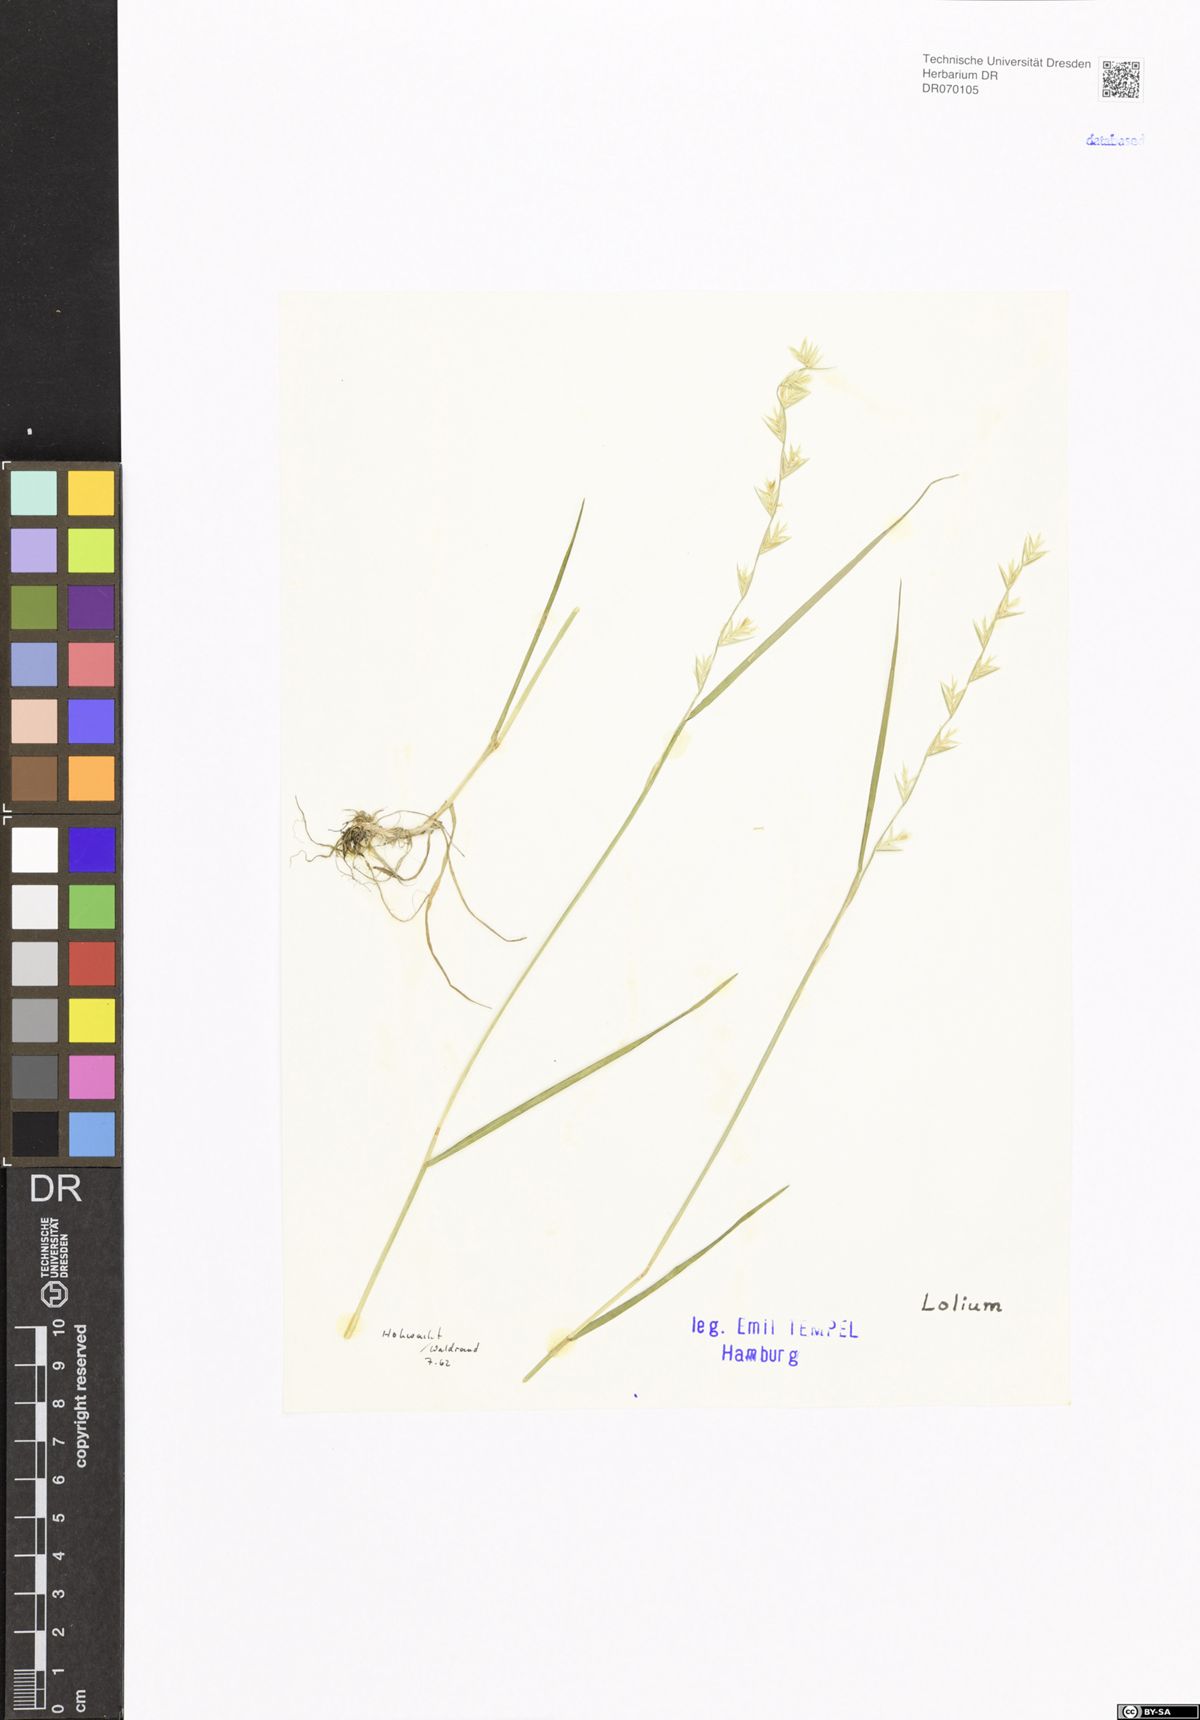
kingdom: Plantae
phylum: Tracheophyta
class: Liliopsida
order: Poales
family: Poaceae
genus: Lolium
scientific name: Lolium
